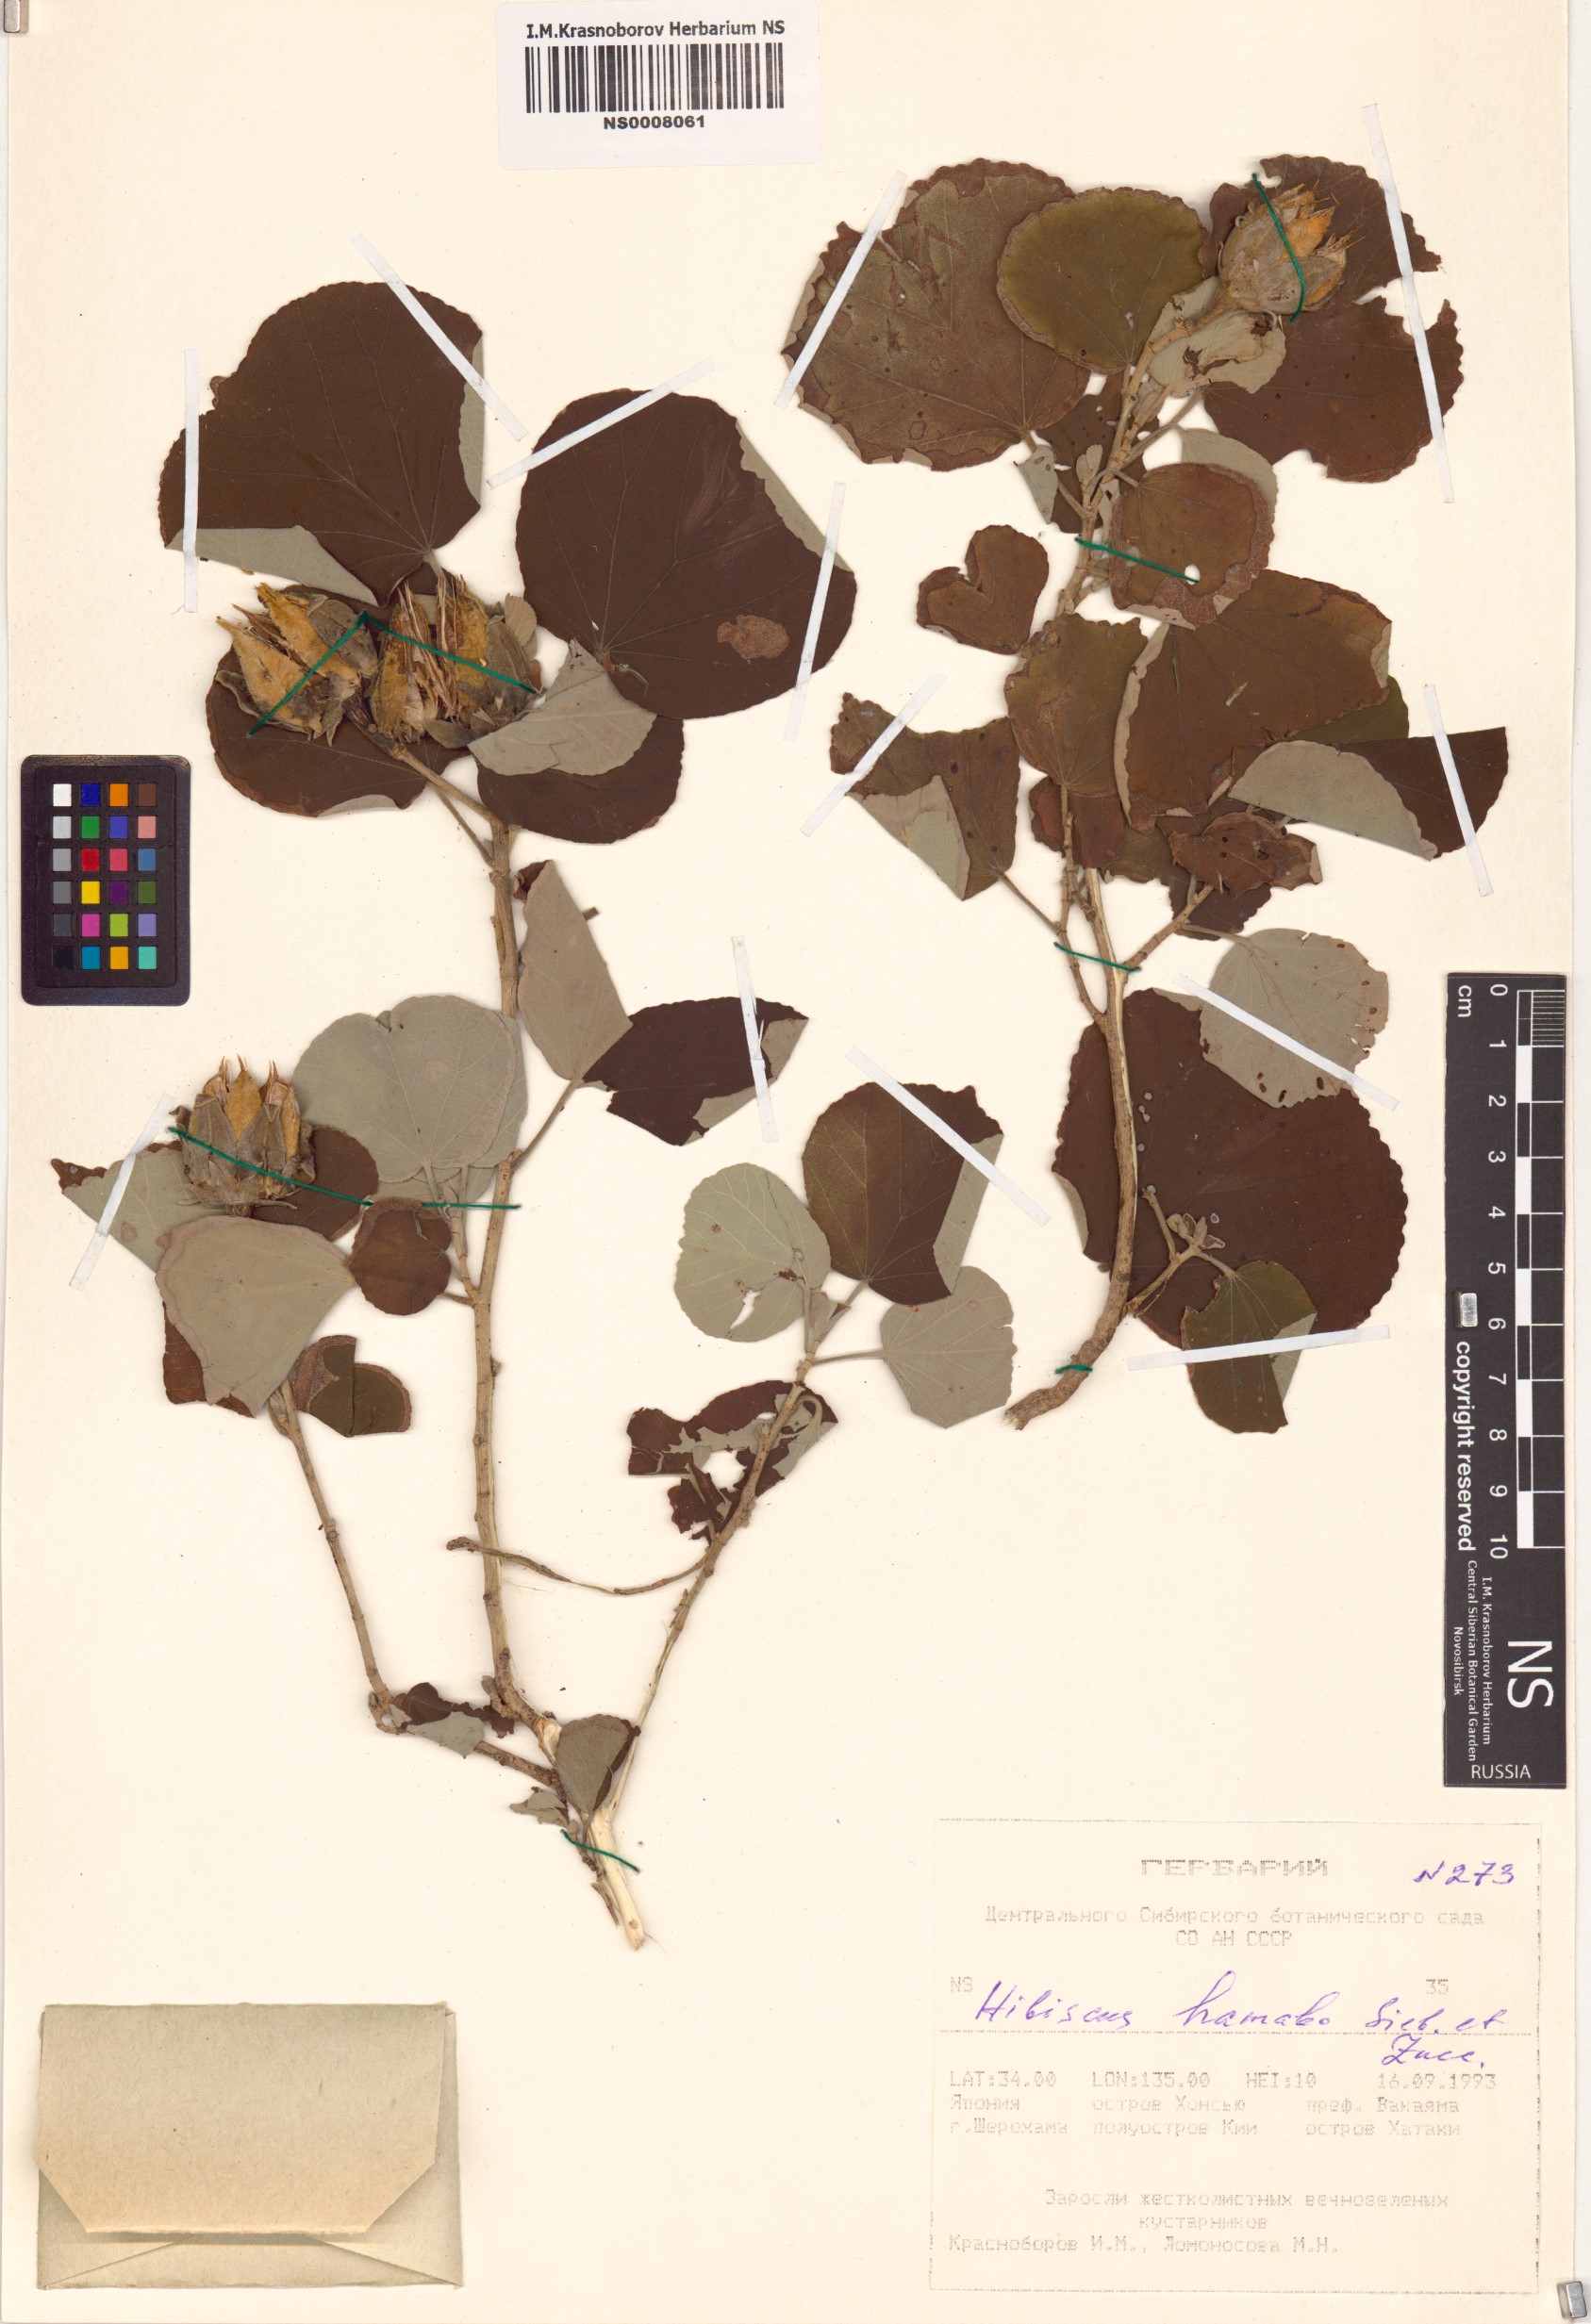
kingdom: Plantae
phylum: Tracheophyta
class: Magnoliopsida
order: Malvales
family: Malvaceae
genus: Talipariti
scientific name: Talipariti hamabo
